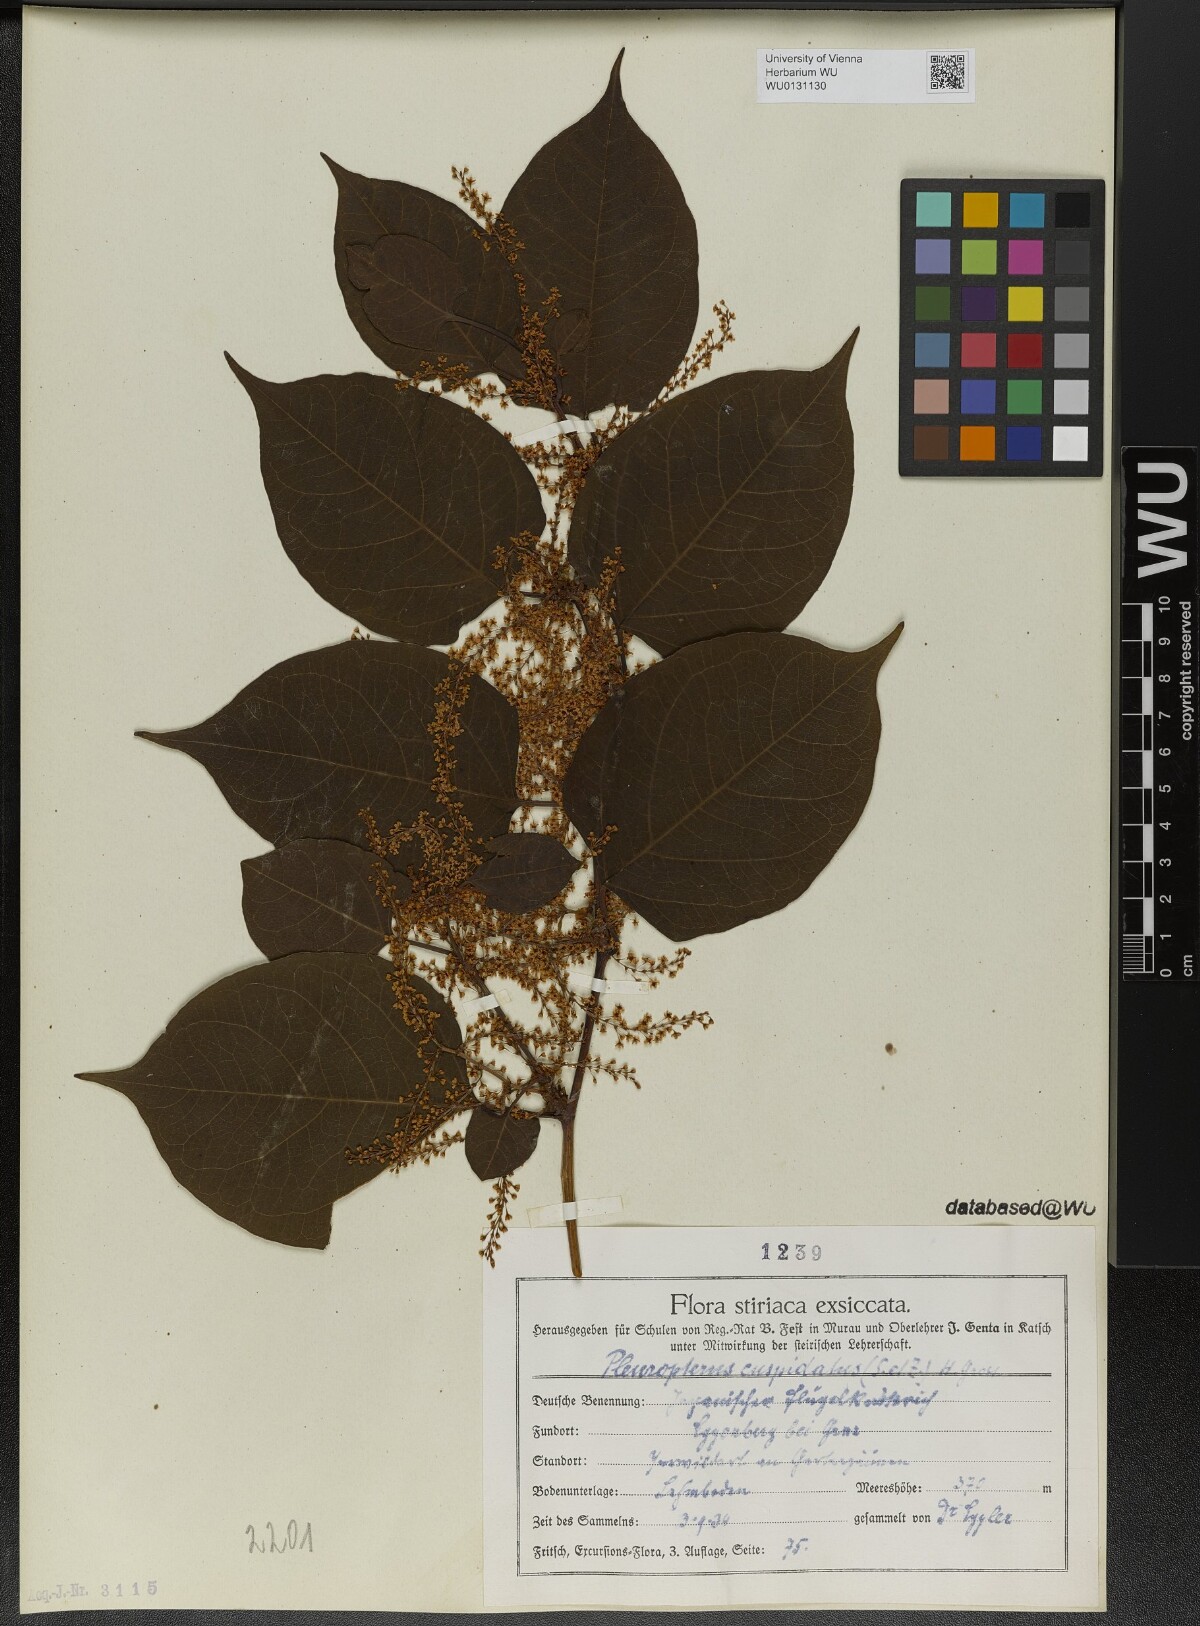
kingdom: Plantae
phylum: Tracheophyta
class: Magnoliopsida
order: Caryophyllales
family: Polygonaceae
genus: Reynoutria
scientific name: Reynoutria japonica
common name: Japanese knotweed
